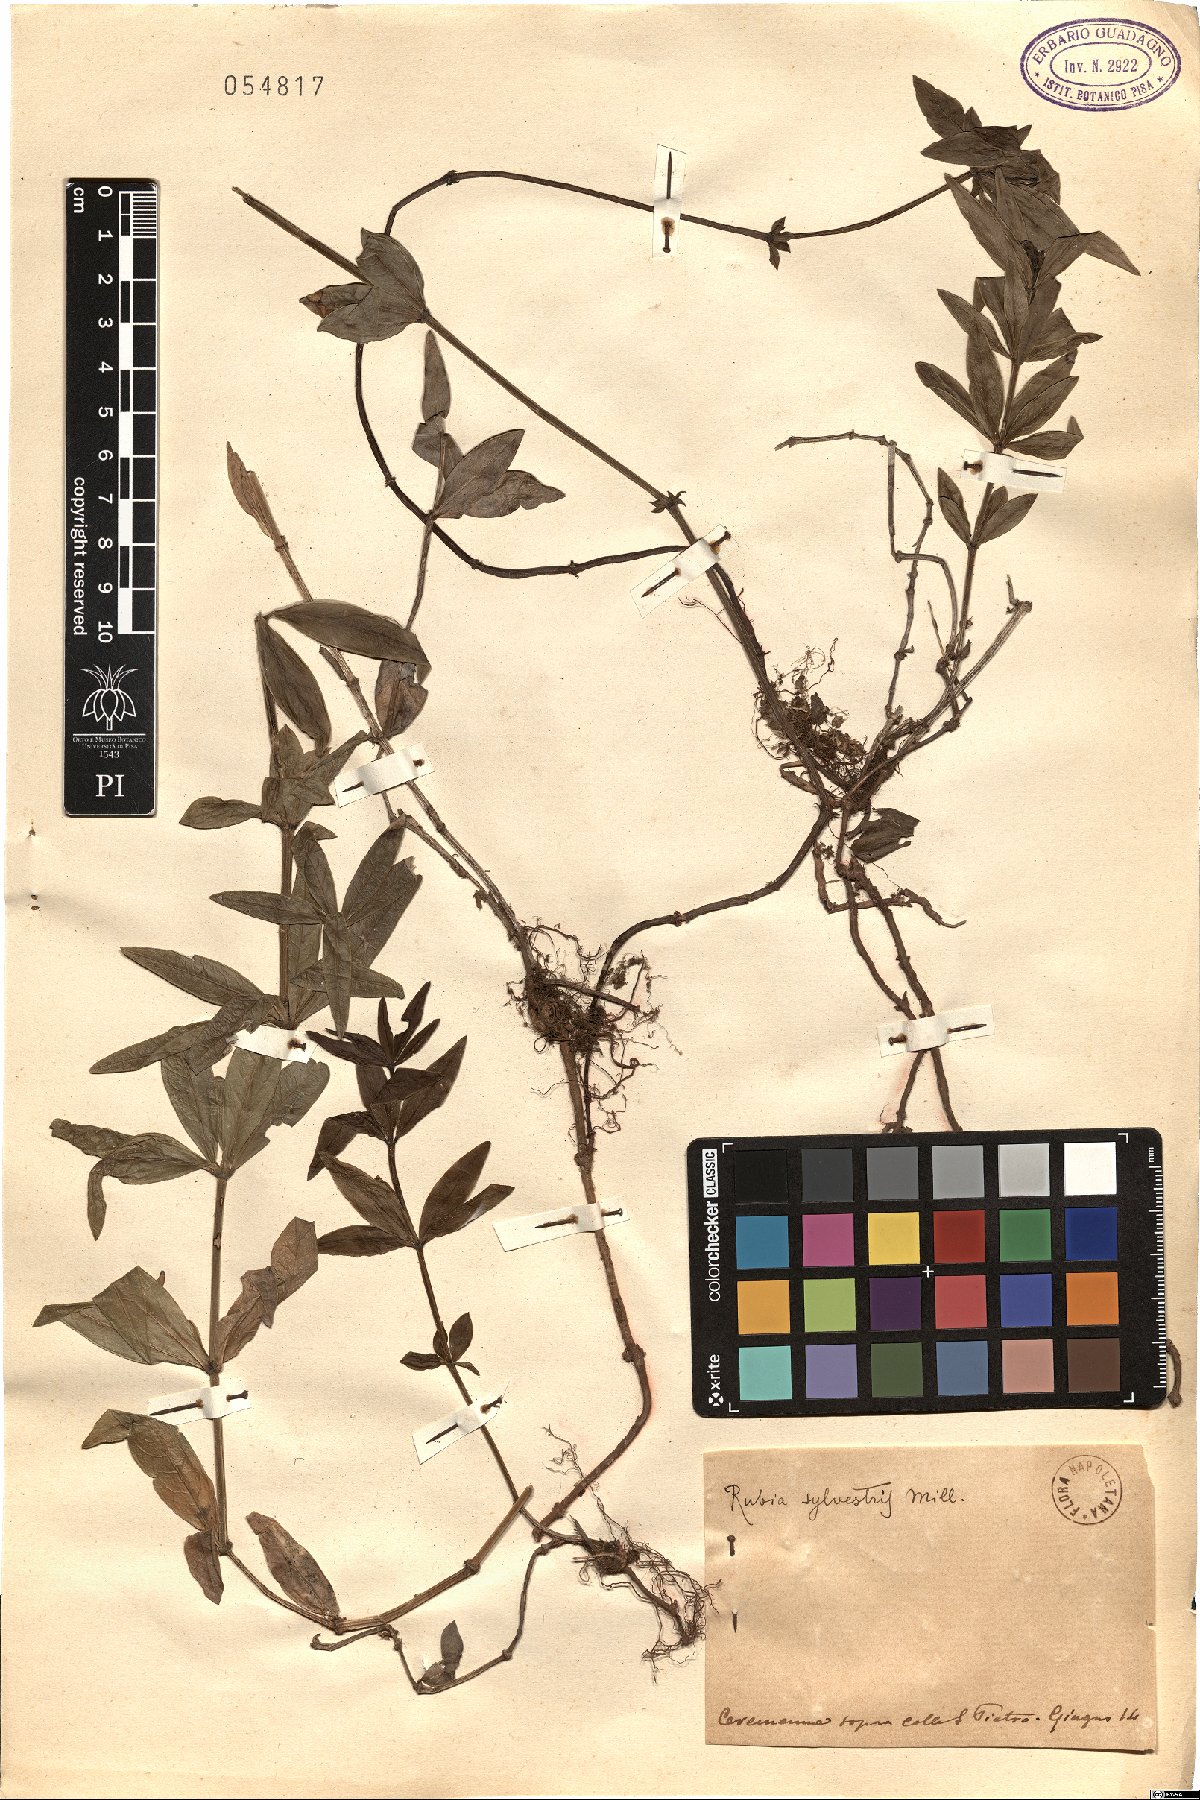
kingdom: Plantae
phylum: Tracheophyta
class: Magnoliopsida
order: Gentianales
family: Rubiaceae
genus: Rubia
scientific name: Rubia tinctorum
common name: Dyer's madder
